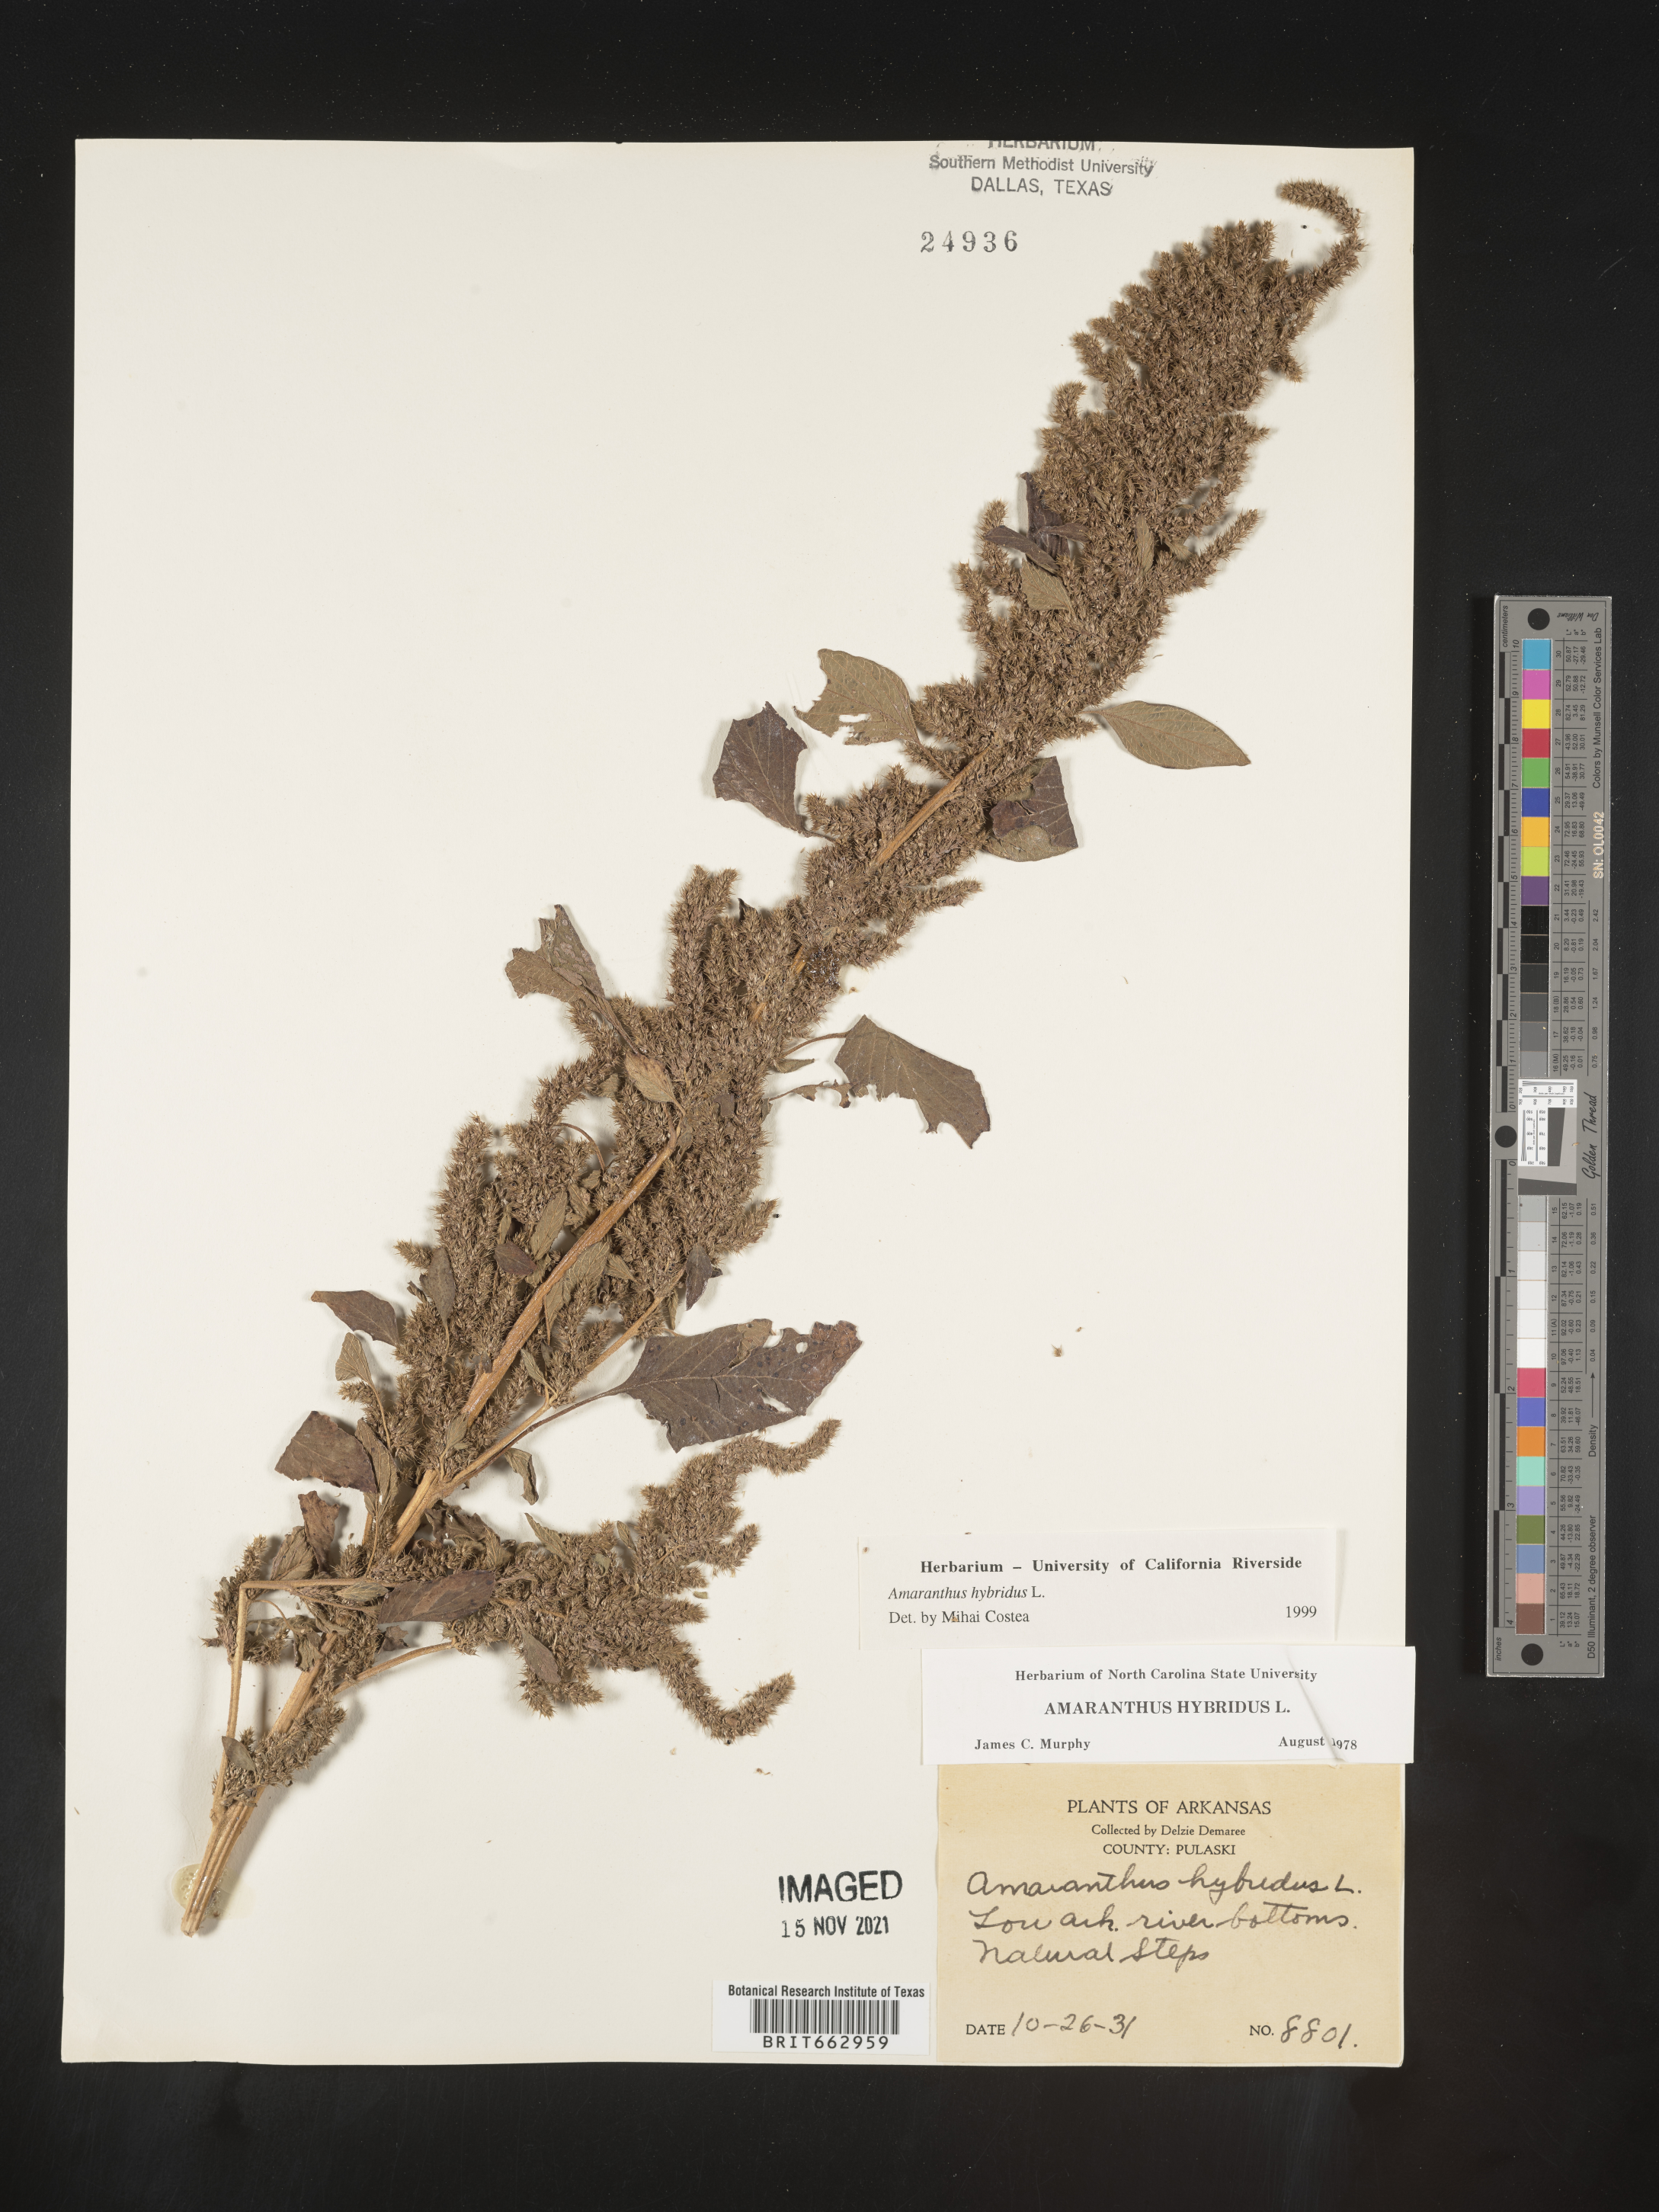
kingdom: Plantae
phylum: Tracheophyta
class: Magnoliopsida
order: Caryophyllales
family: Amaranthaceae
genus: Amaranthus
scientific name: Amaranthus hybridus
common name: Green amaranth
